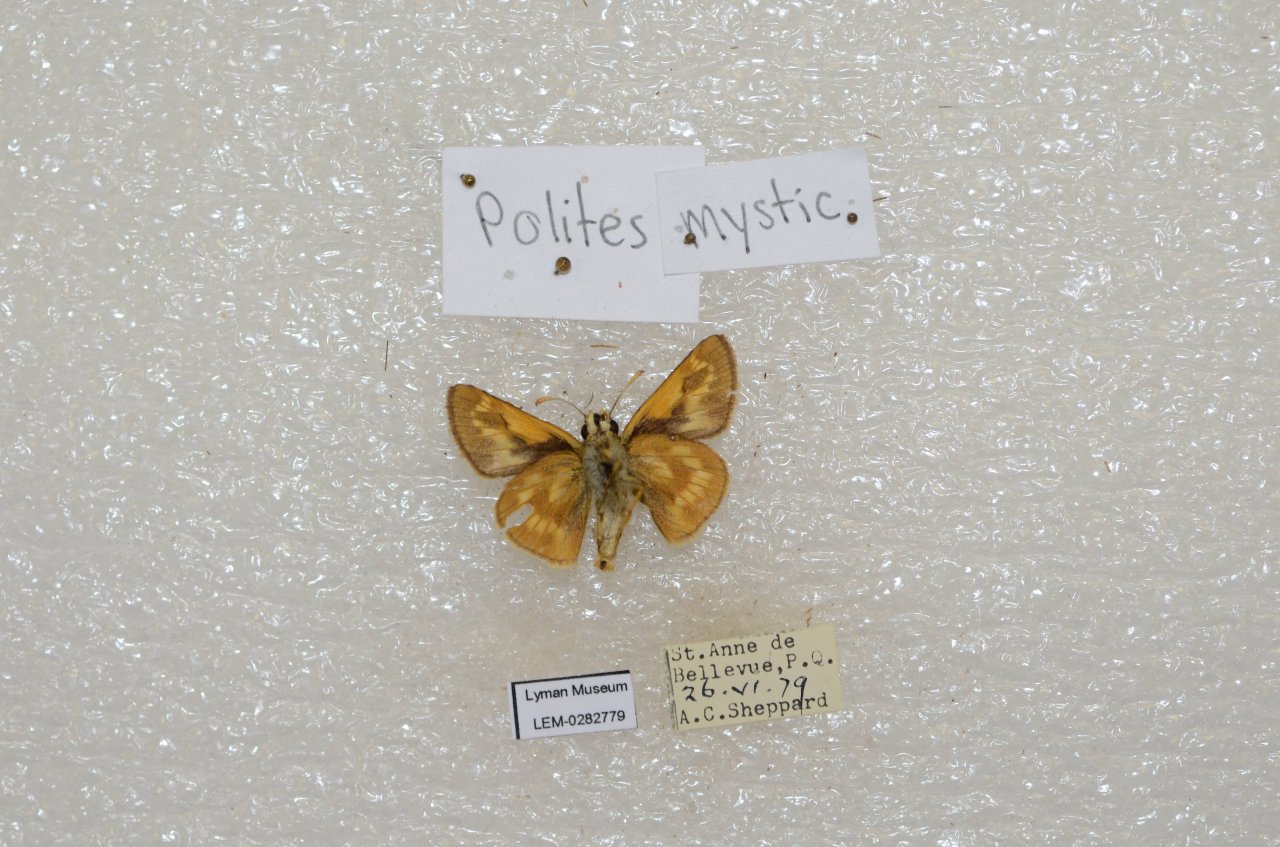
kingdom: Animalia
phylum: Arthropoda
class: Insecta
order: Lepidoptera
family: Hesperiidae
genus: Polites
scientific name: Polites
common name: Long Dash Skipper
